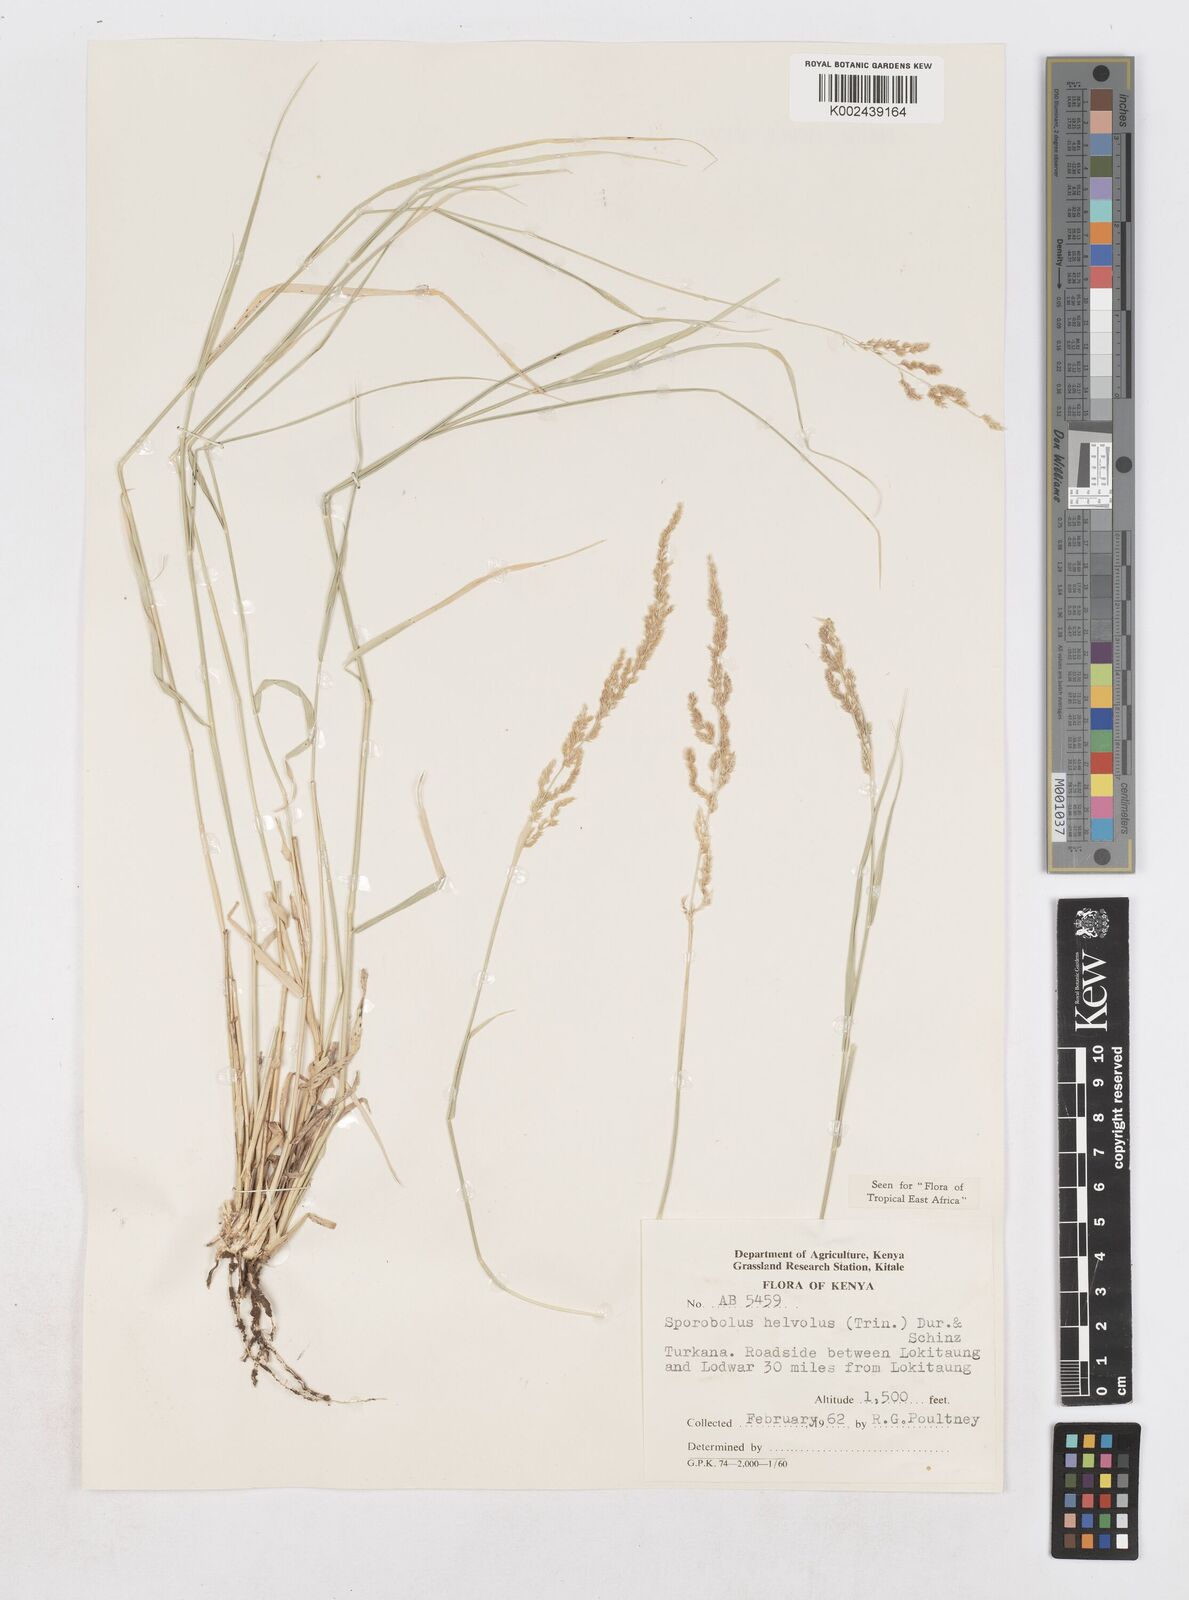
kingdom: Plantae
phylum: Tracheophyta
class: Liliopsida
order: Poales
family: Poaceae
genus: Sporobolus
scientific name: Sporobolus helvolus
